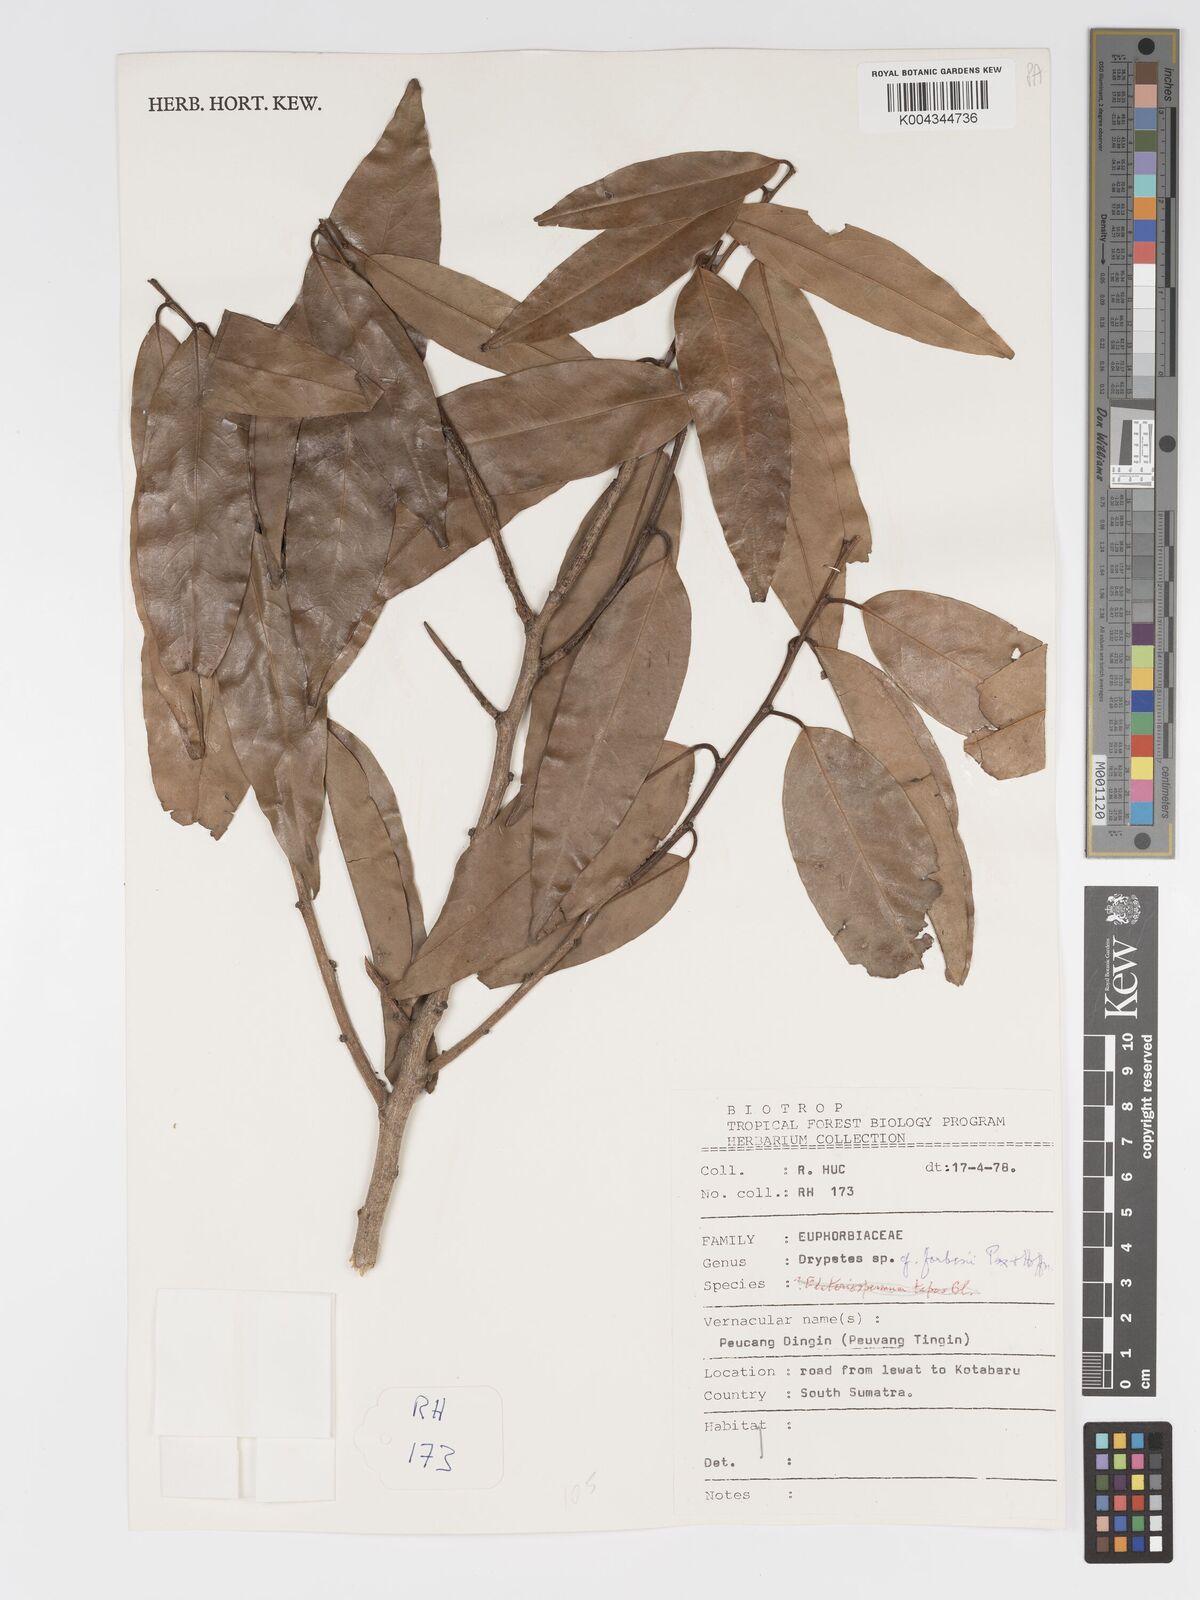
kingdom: Plantae
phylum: Tracheophyta
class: Magnoliopsida
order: Malpighiales
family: Putranjivaceae
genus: Drypetes
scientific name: Drypetes sherffii
